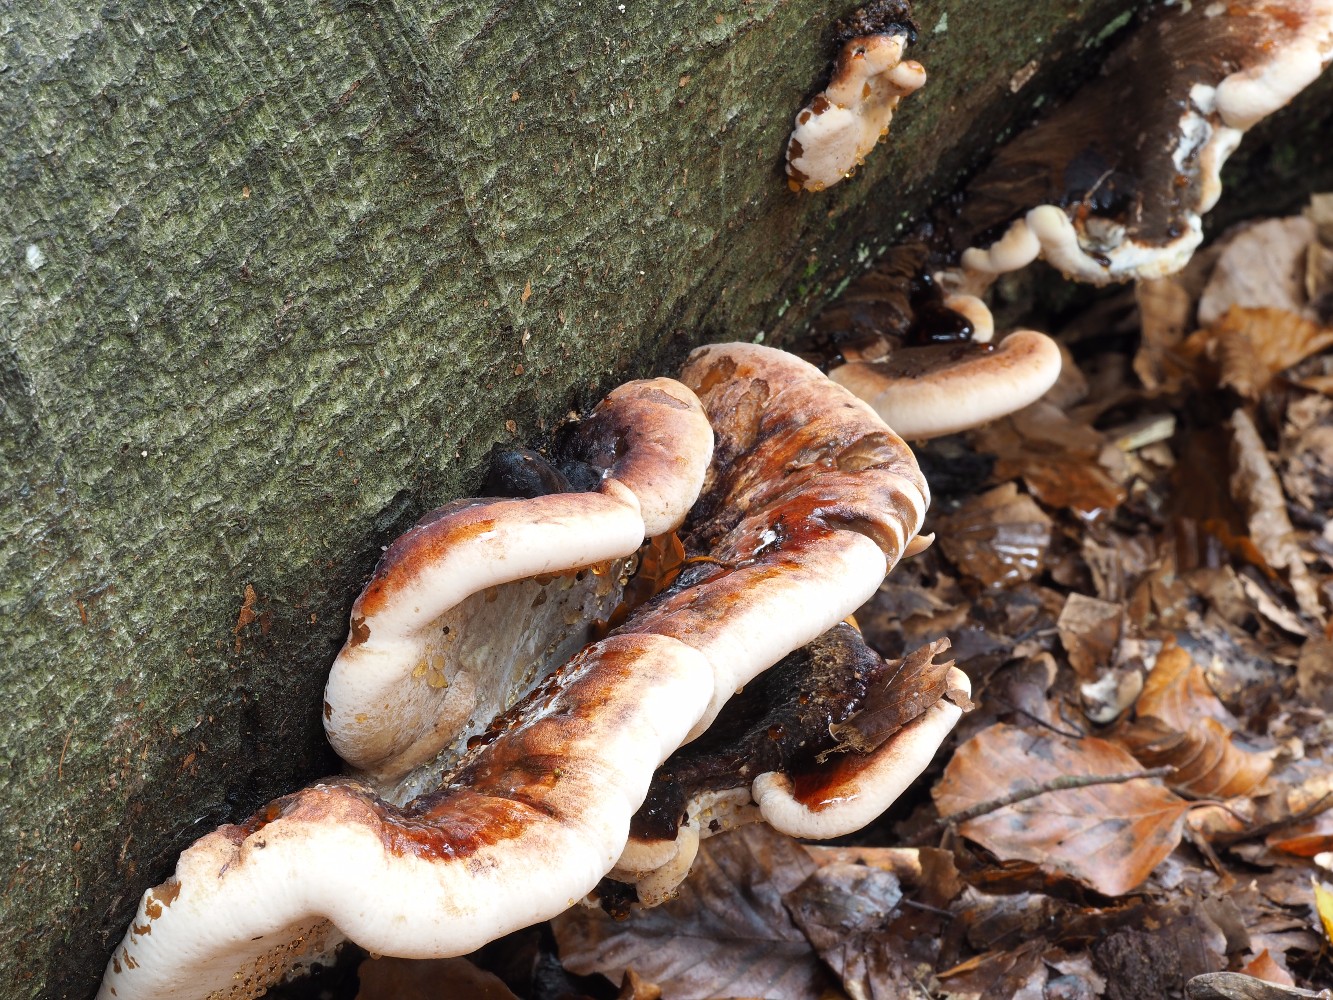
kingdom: Fungi
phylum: Basidiomycota
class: Agaricomycetes
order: Polyporales
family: Ischnodermataceae
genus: Ischnoderma
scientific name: Ischnoderma resinosum
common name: løv-tjæreporesvamp
